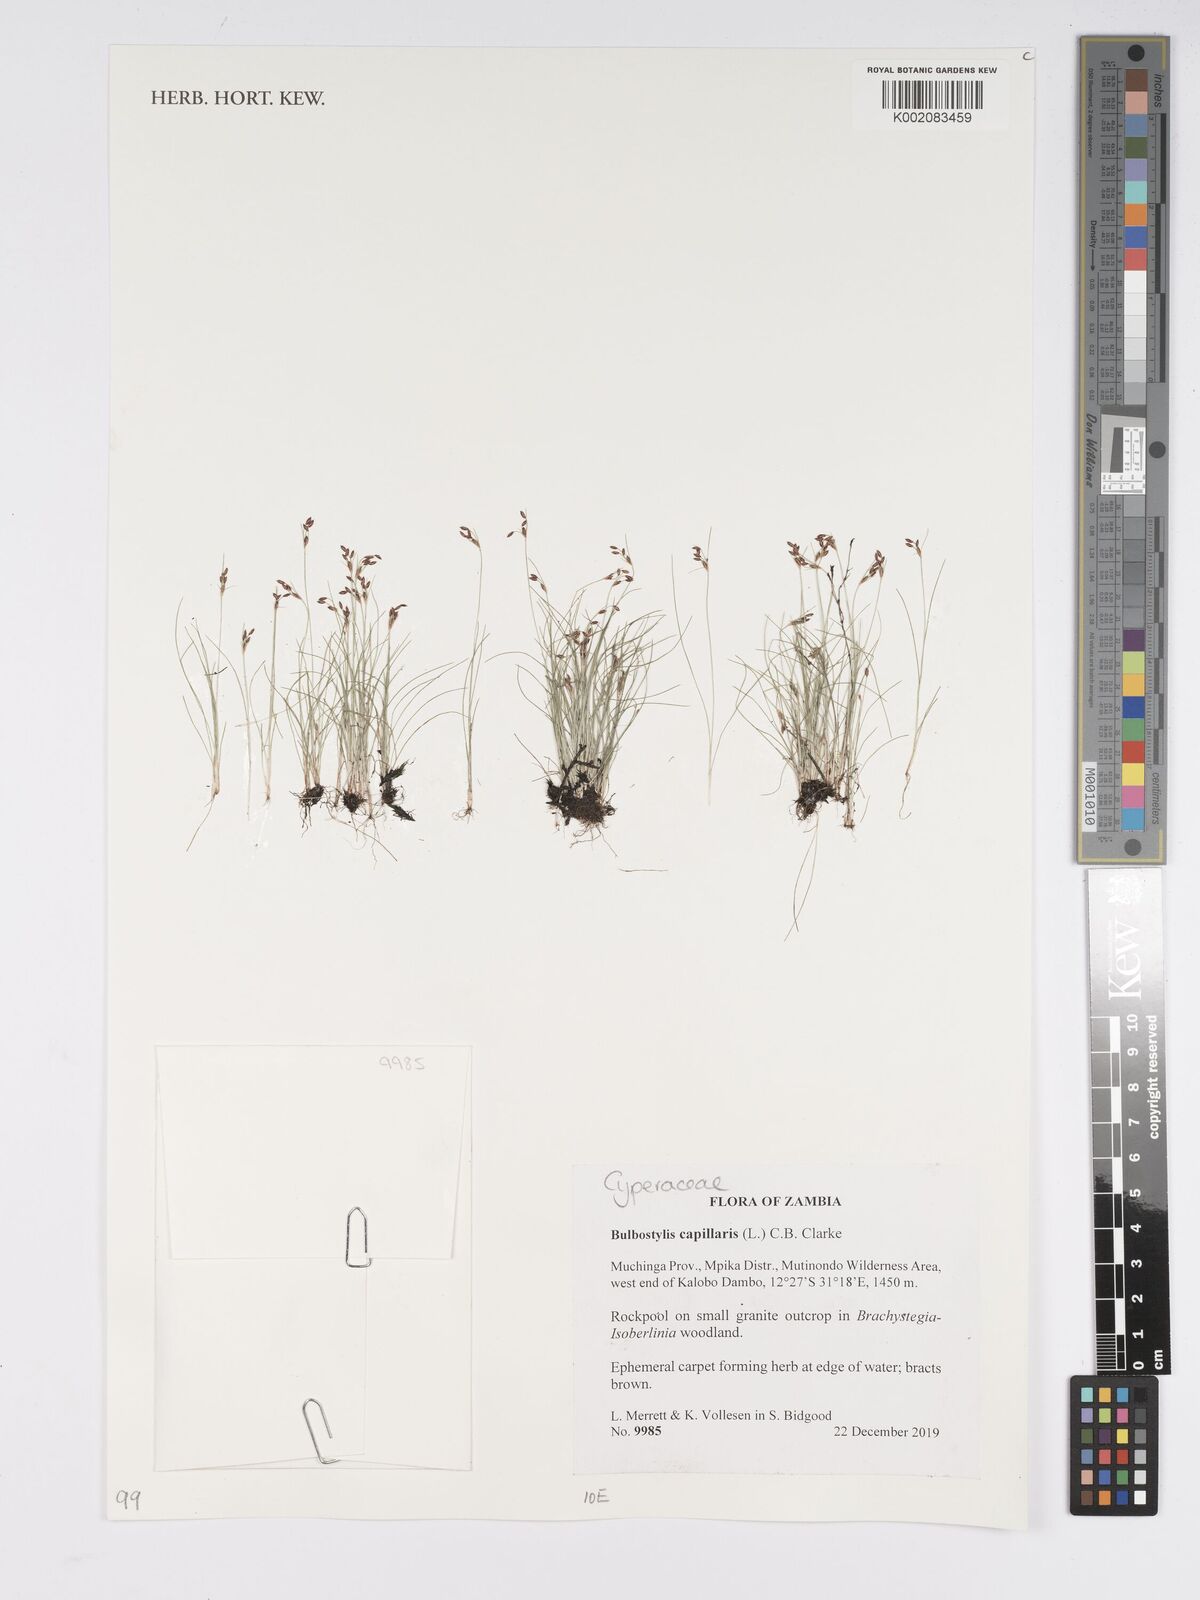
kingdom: Plantae
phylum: Tracheophyta
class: Liliopsida
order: Poales
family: Cyperaceae
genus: Bulbostylis
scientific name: Bulbostylis capillaris
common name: Densetuft hairsedge
